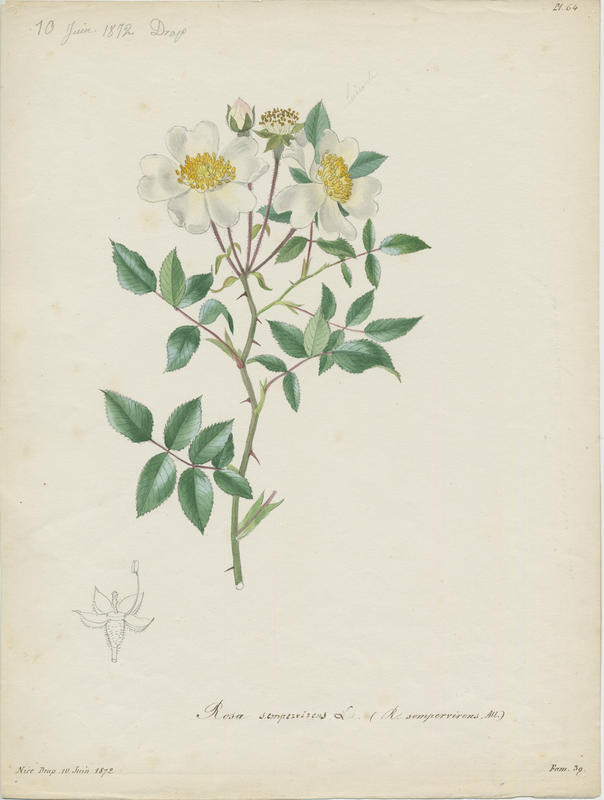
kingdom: Plantae
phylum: Tracheophyta
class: Magnoliopsida
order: Rosales
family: Rosaceae
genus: Rosa
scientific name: Rosa sempervirens
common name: Evergreen rose
